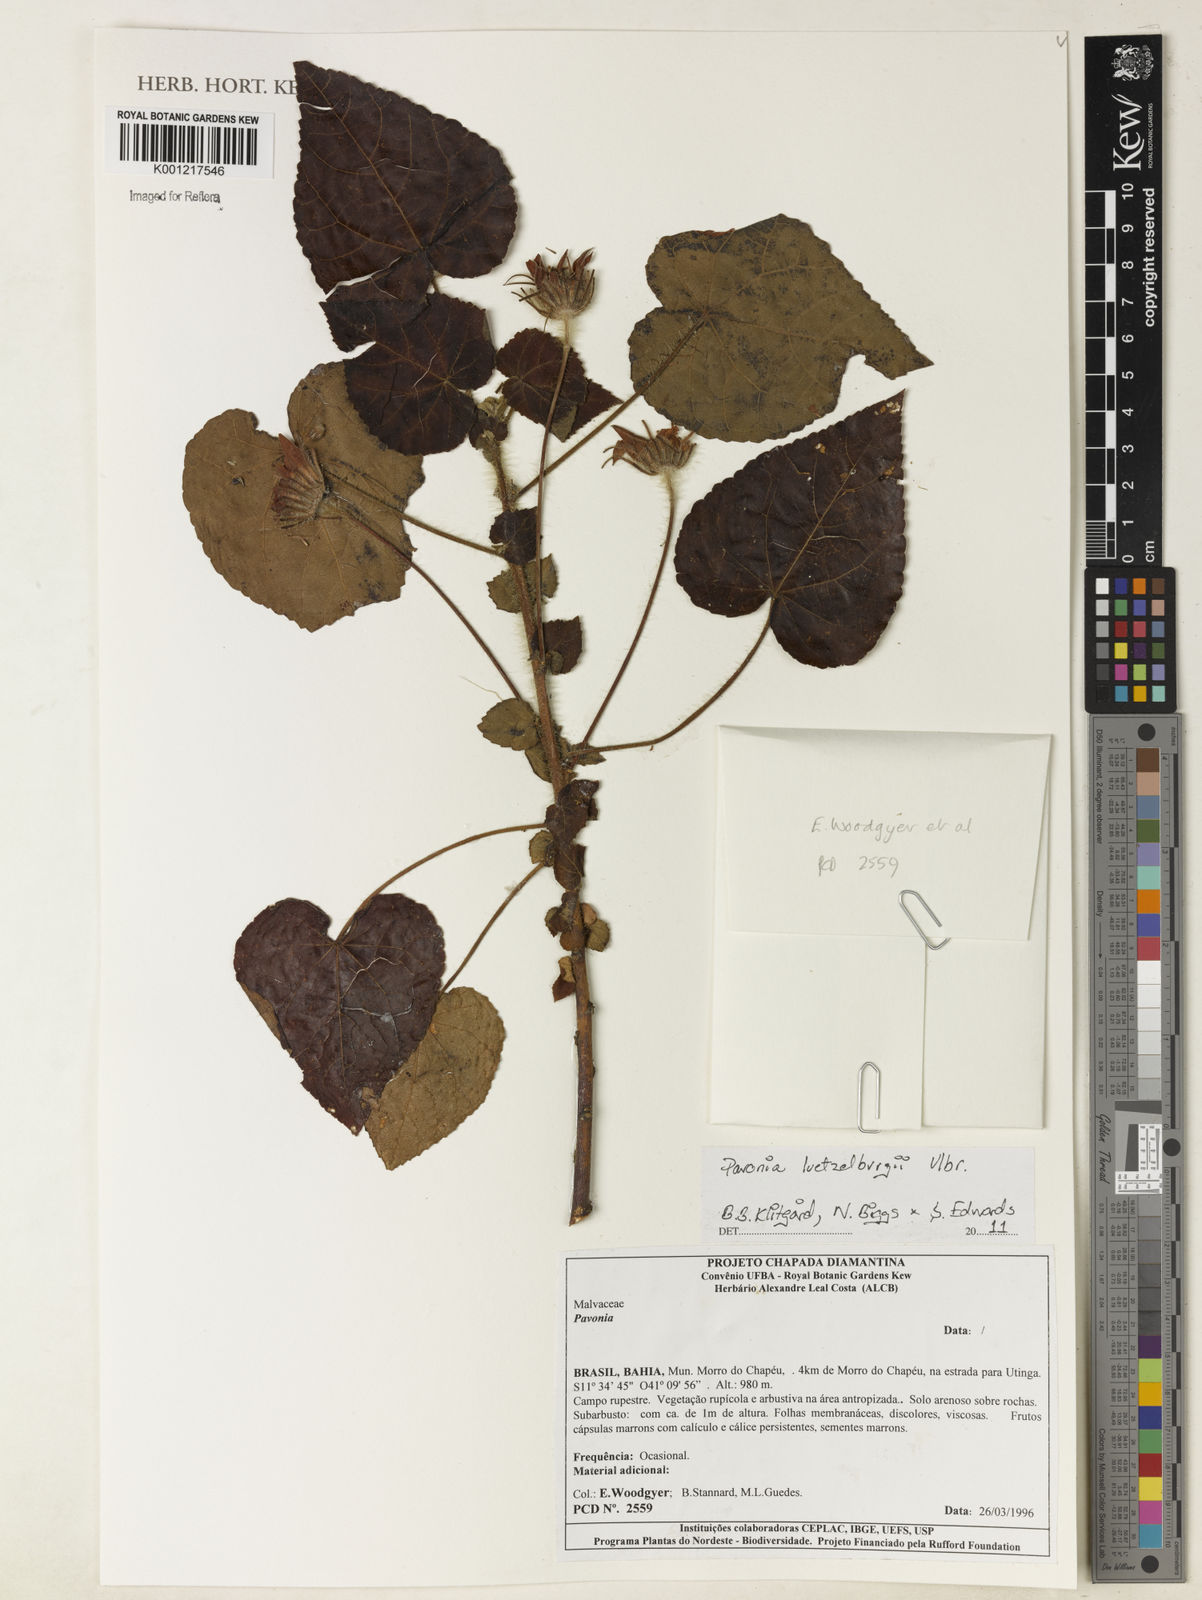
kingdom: Plantae
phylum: Tracheophyta
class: Magnoliopsida
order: Malvales
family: Malvaceae
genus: Pavonia
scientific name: Pavonia luetzelburgii
